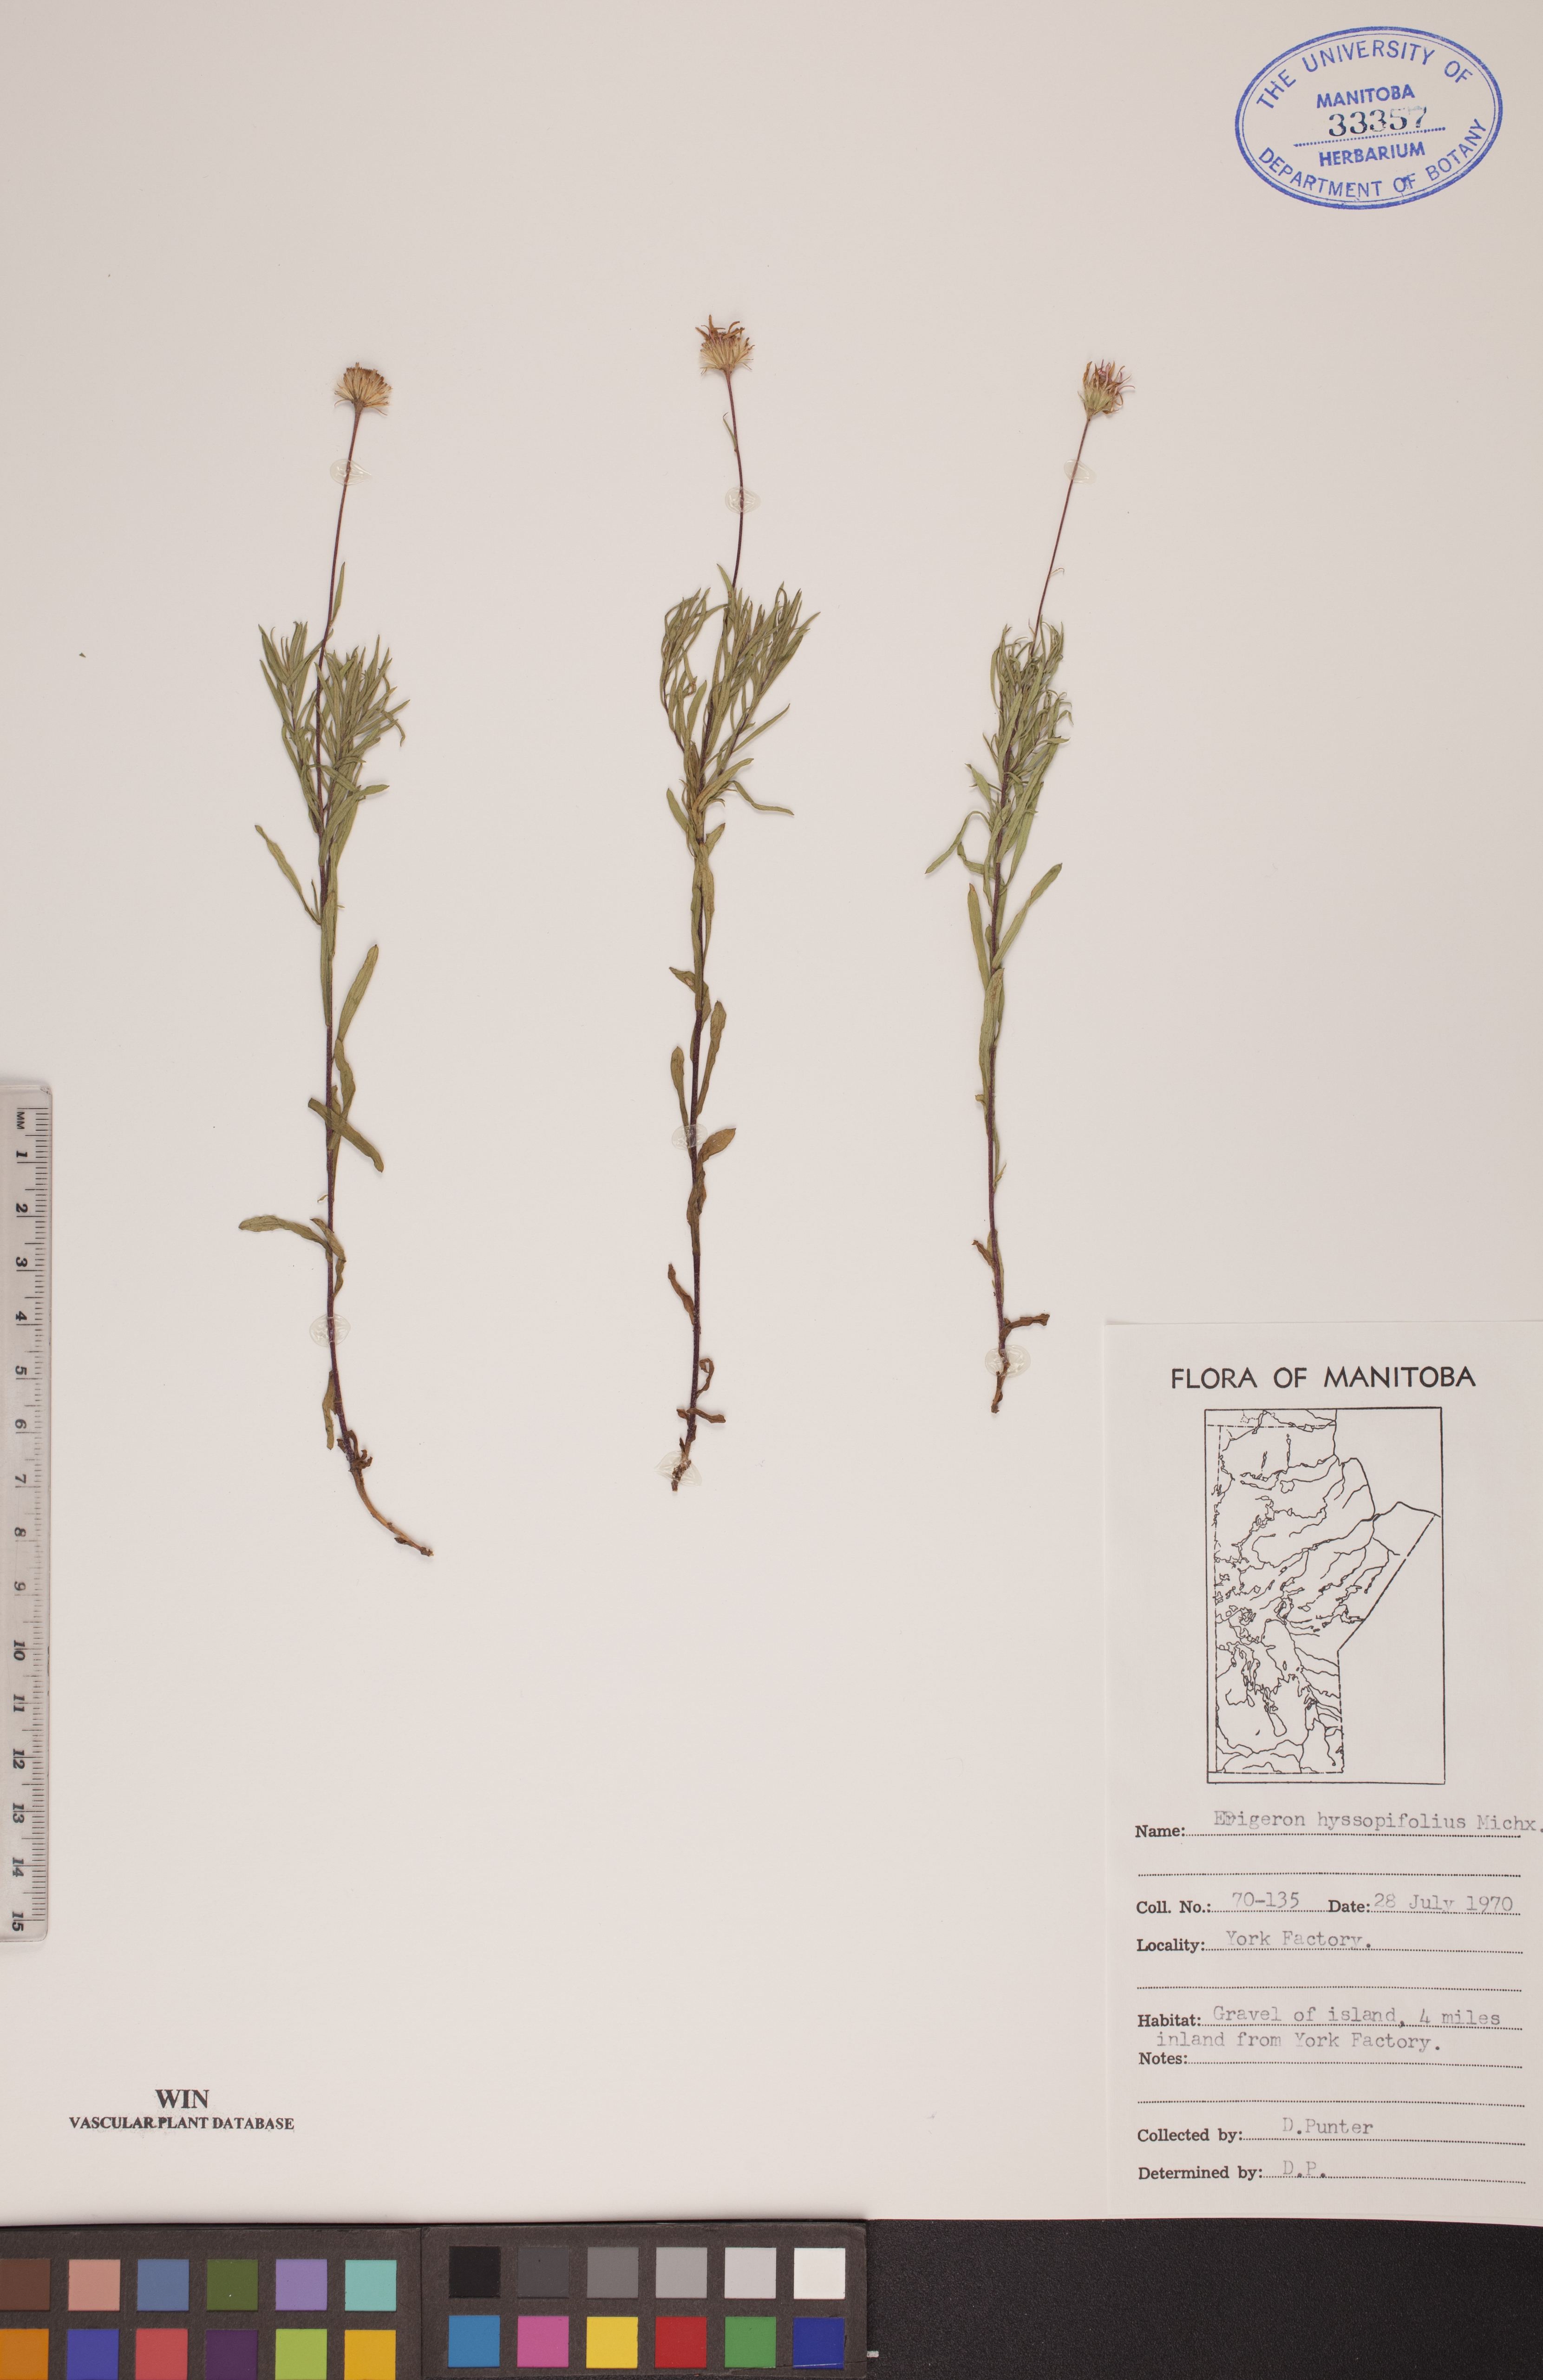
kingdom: Plantae
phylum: Tracheophyta
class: Magnoliopsida
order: Asterales
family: Asteraceae
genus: Erigeron
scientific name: Erigeron hyssopifolius
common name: Daisy fleabane
